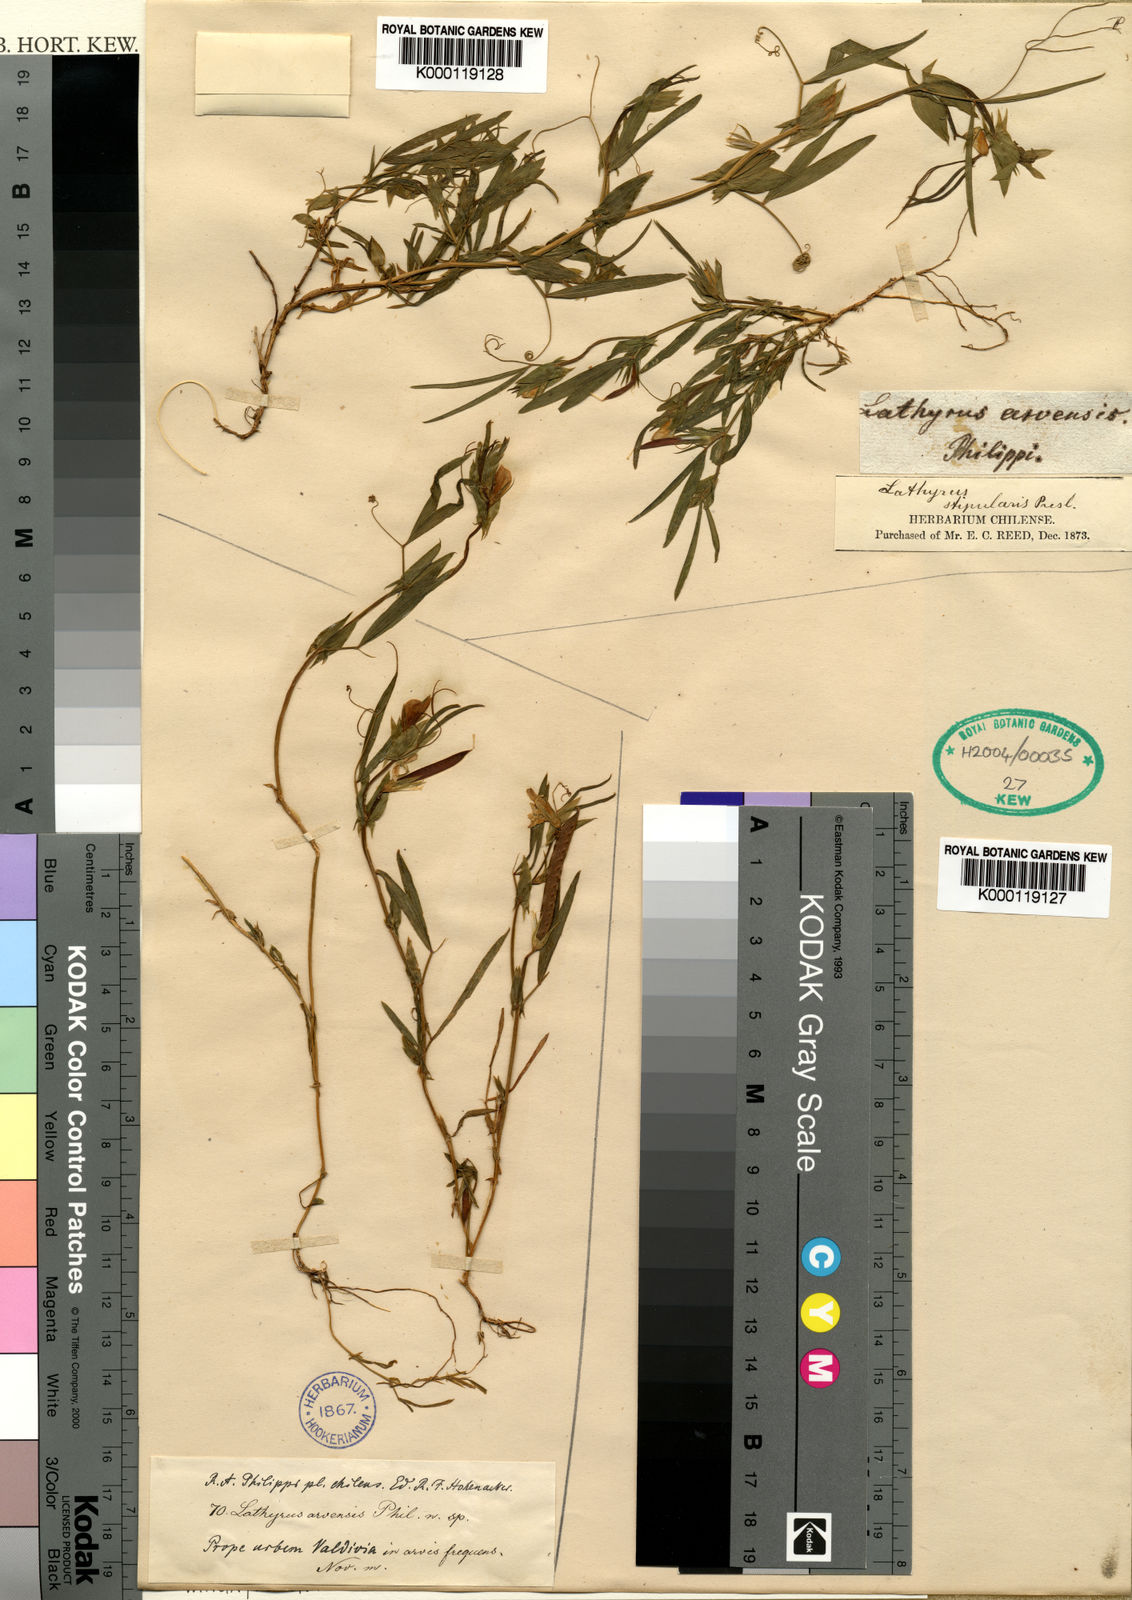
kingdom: Plantae
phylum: Tracheophyta
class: Magnoliopsida
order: Fabales
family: Fabaceae
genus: Lathyrus
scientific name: Lathyrus crassipes
